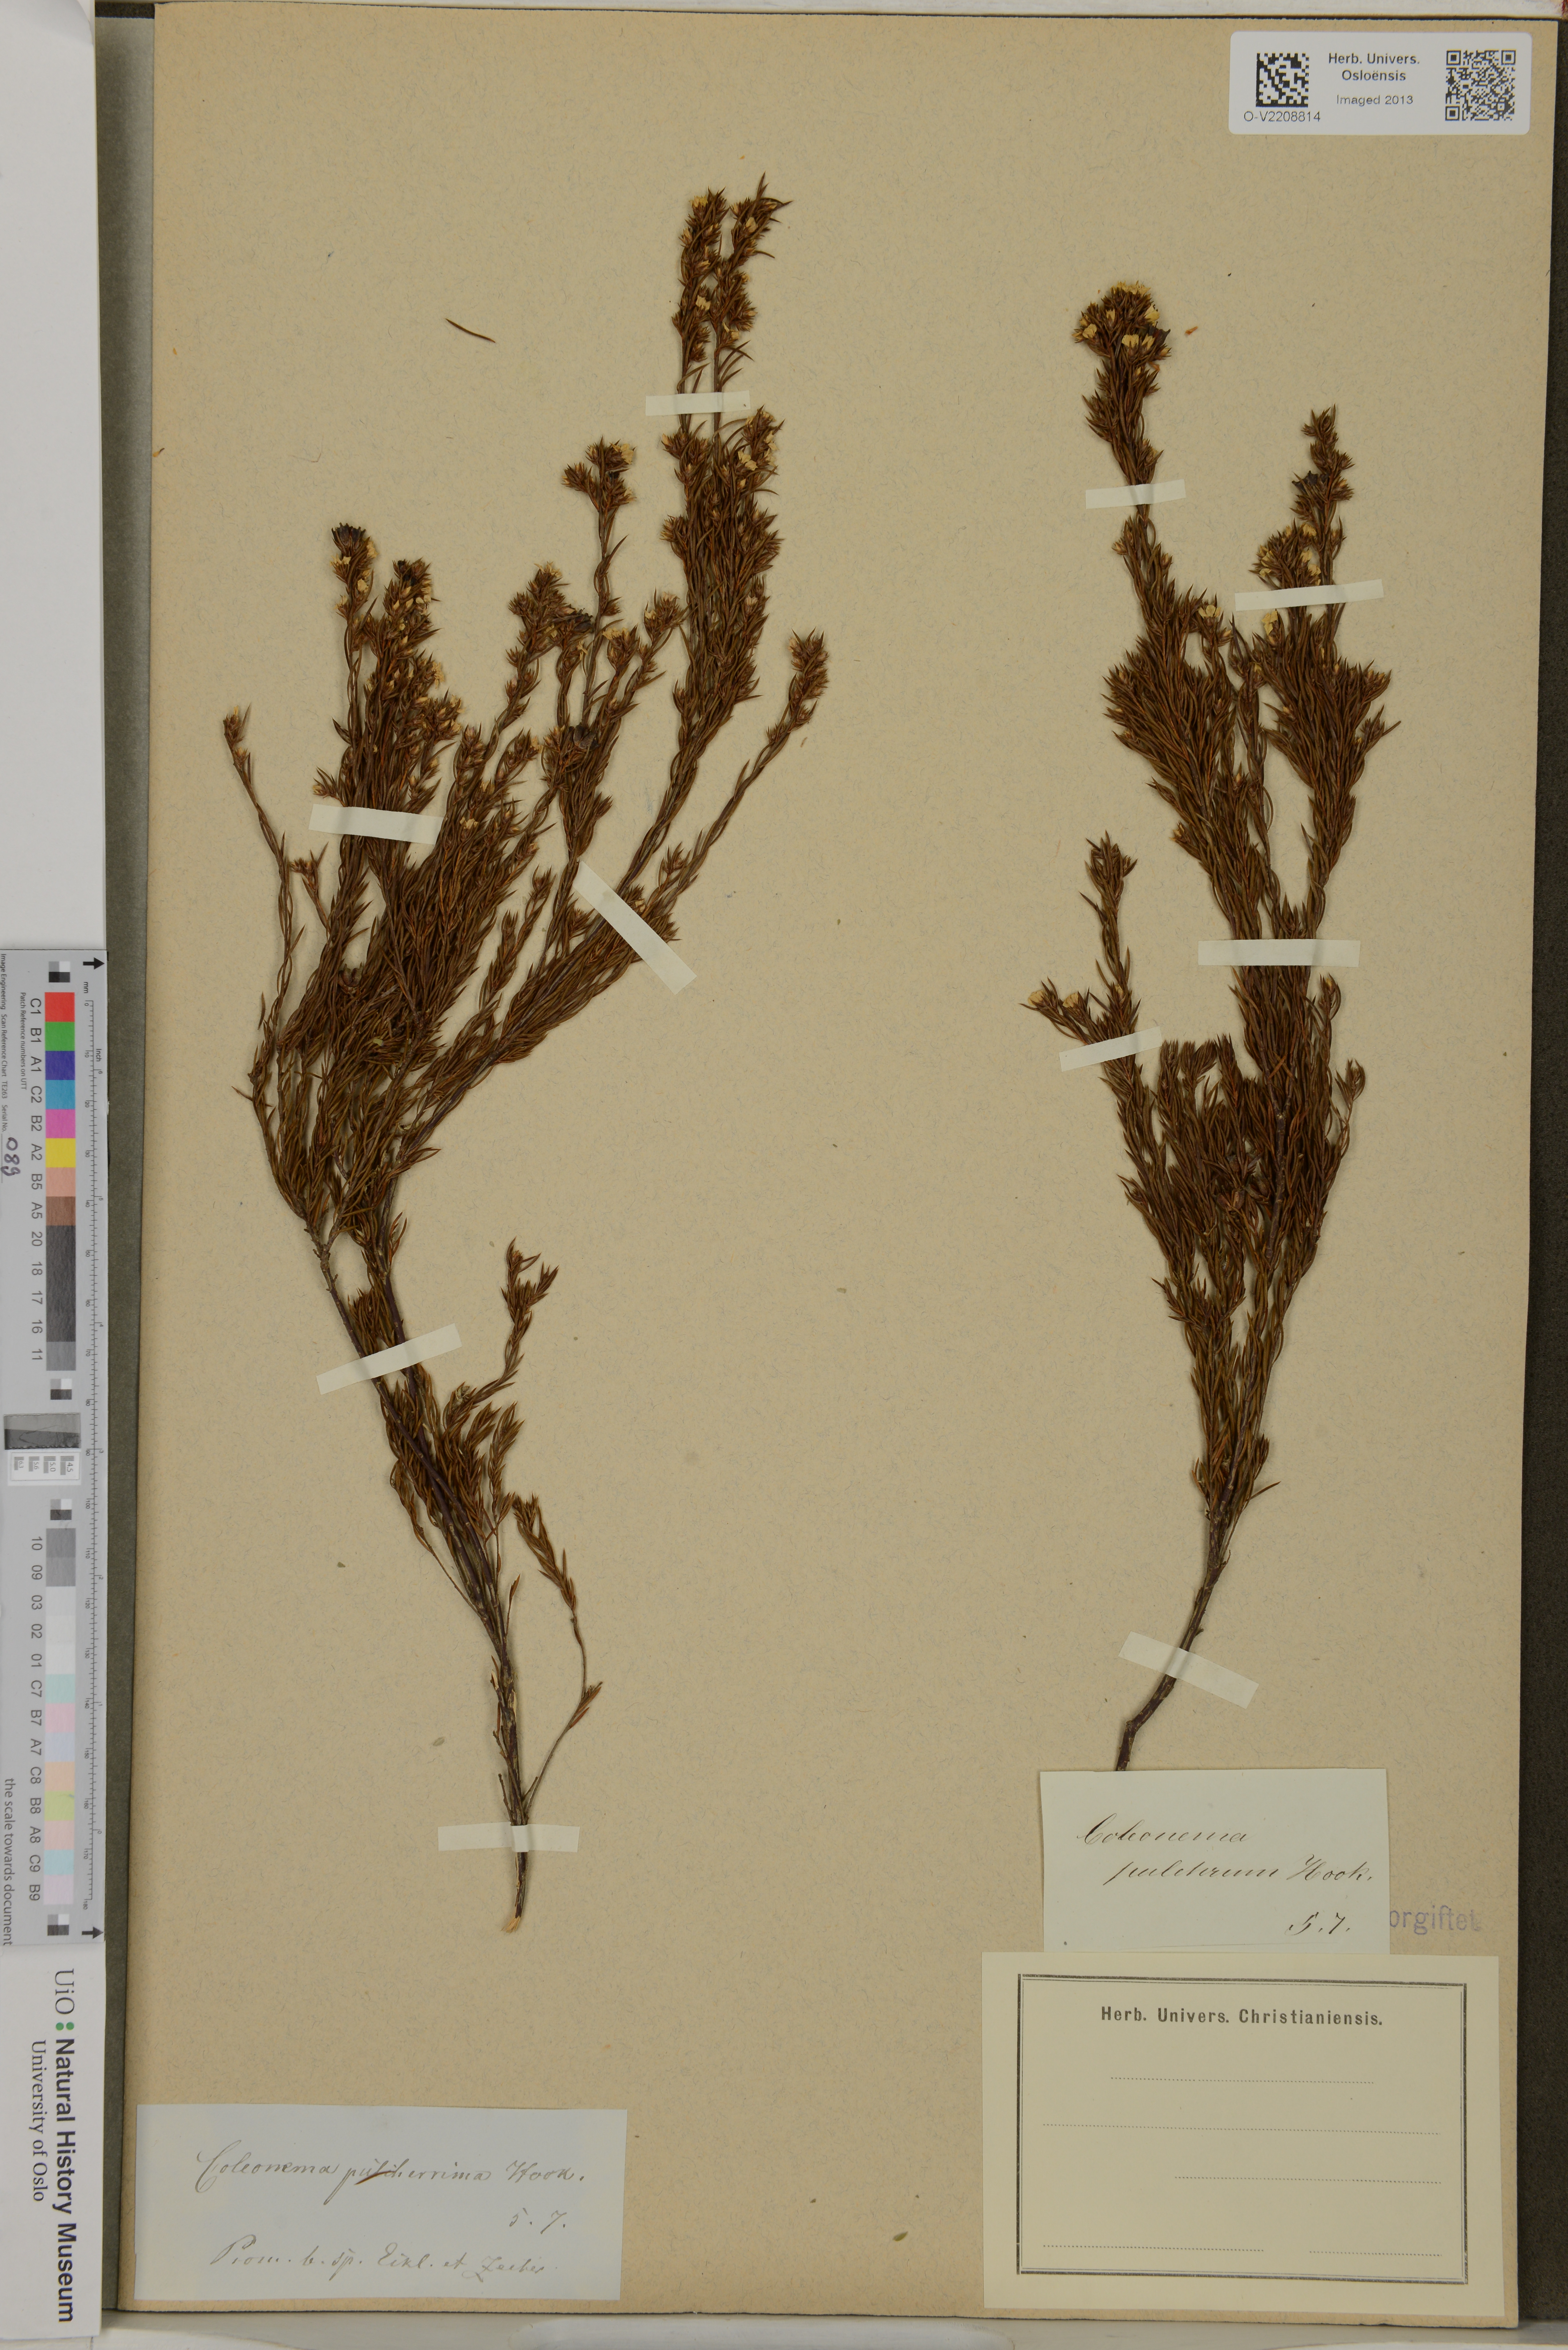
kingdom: Plantae
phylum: Tracheophyta
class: Magnoliopsida
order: Sapindales
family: Rutaceae
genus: Coleonema
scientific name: Coleonema pulchrum
